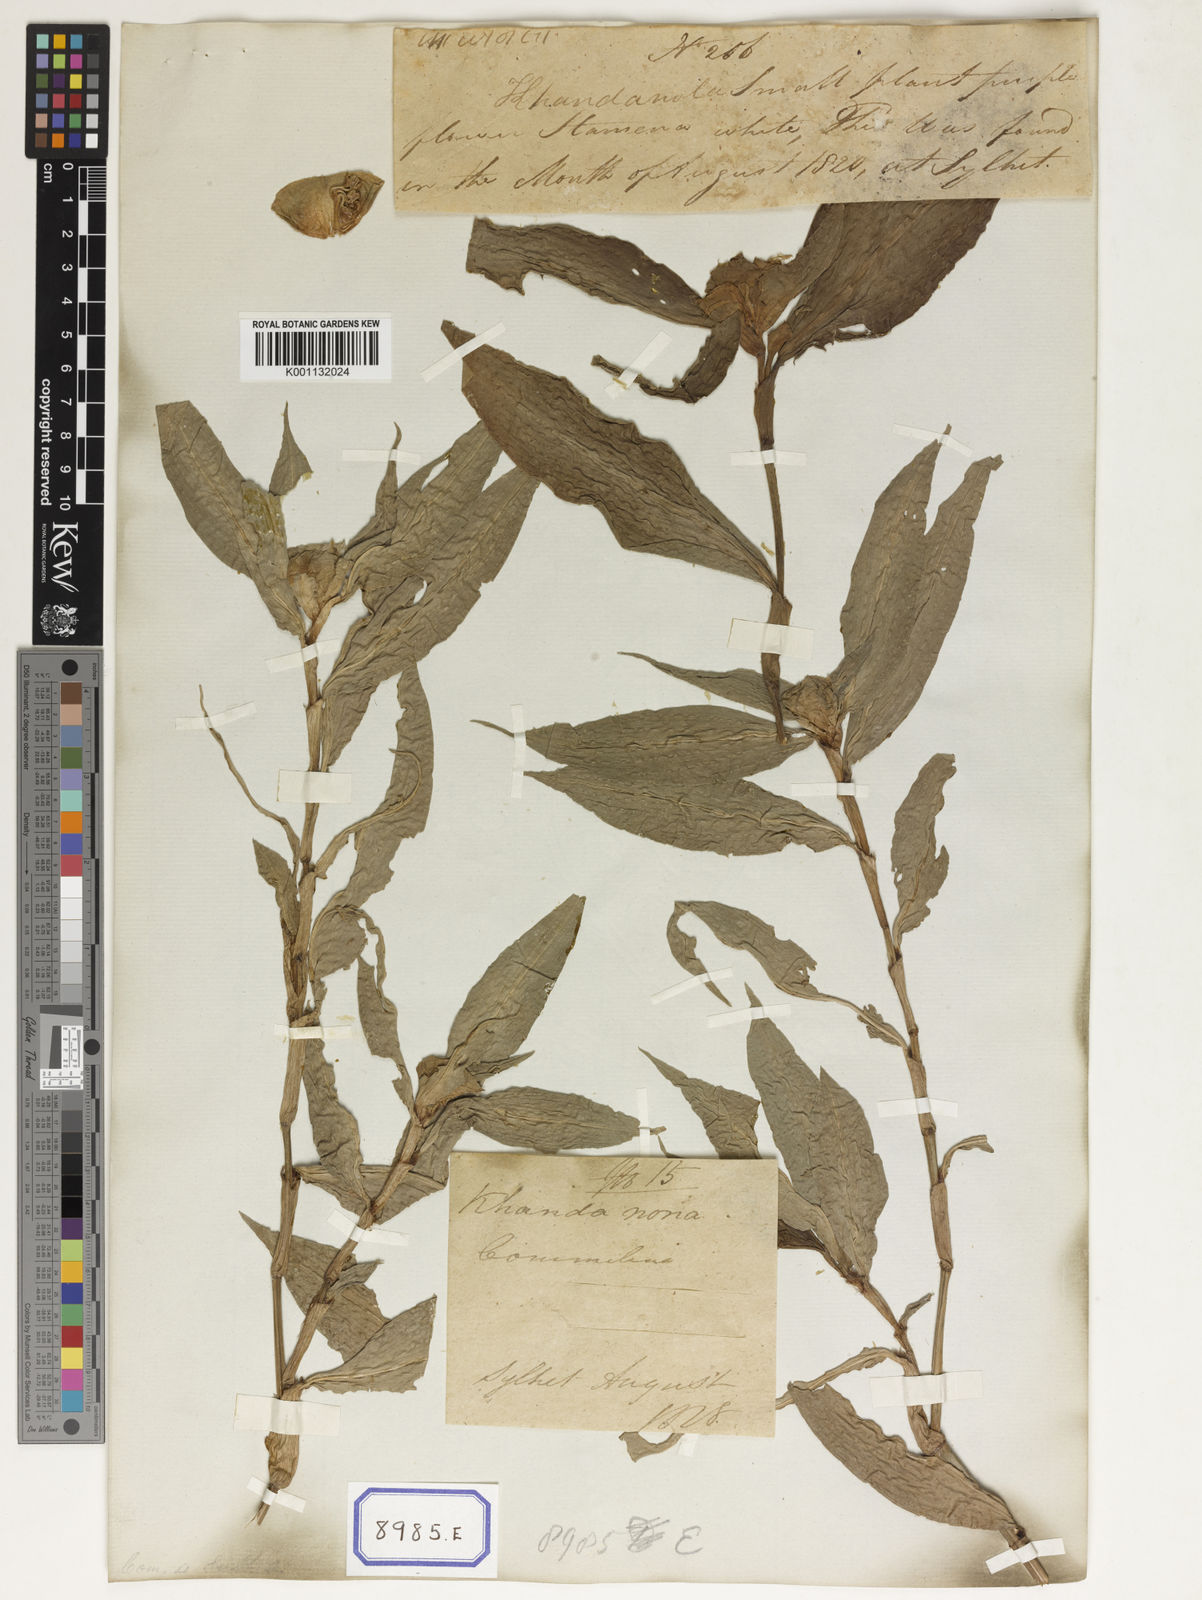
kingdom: Plantae
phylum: Tracheophyta
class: Liliopsida
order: Commelinales
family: Commelinaceae
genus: Commelina
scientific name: Commelina
